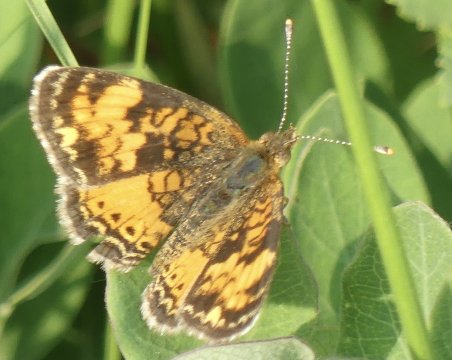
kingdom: Animalia
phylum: Arthropoda
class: Insecta
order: Lepidoptera
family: Nymphalidae
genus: Phyciodes
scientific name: Phyciodes
